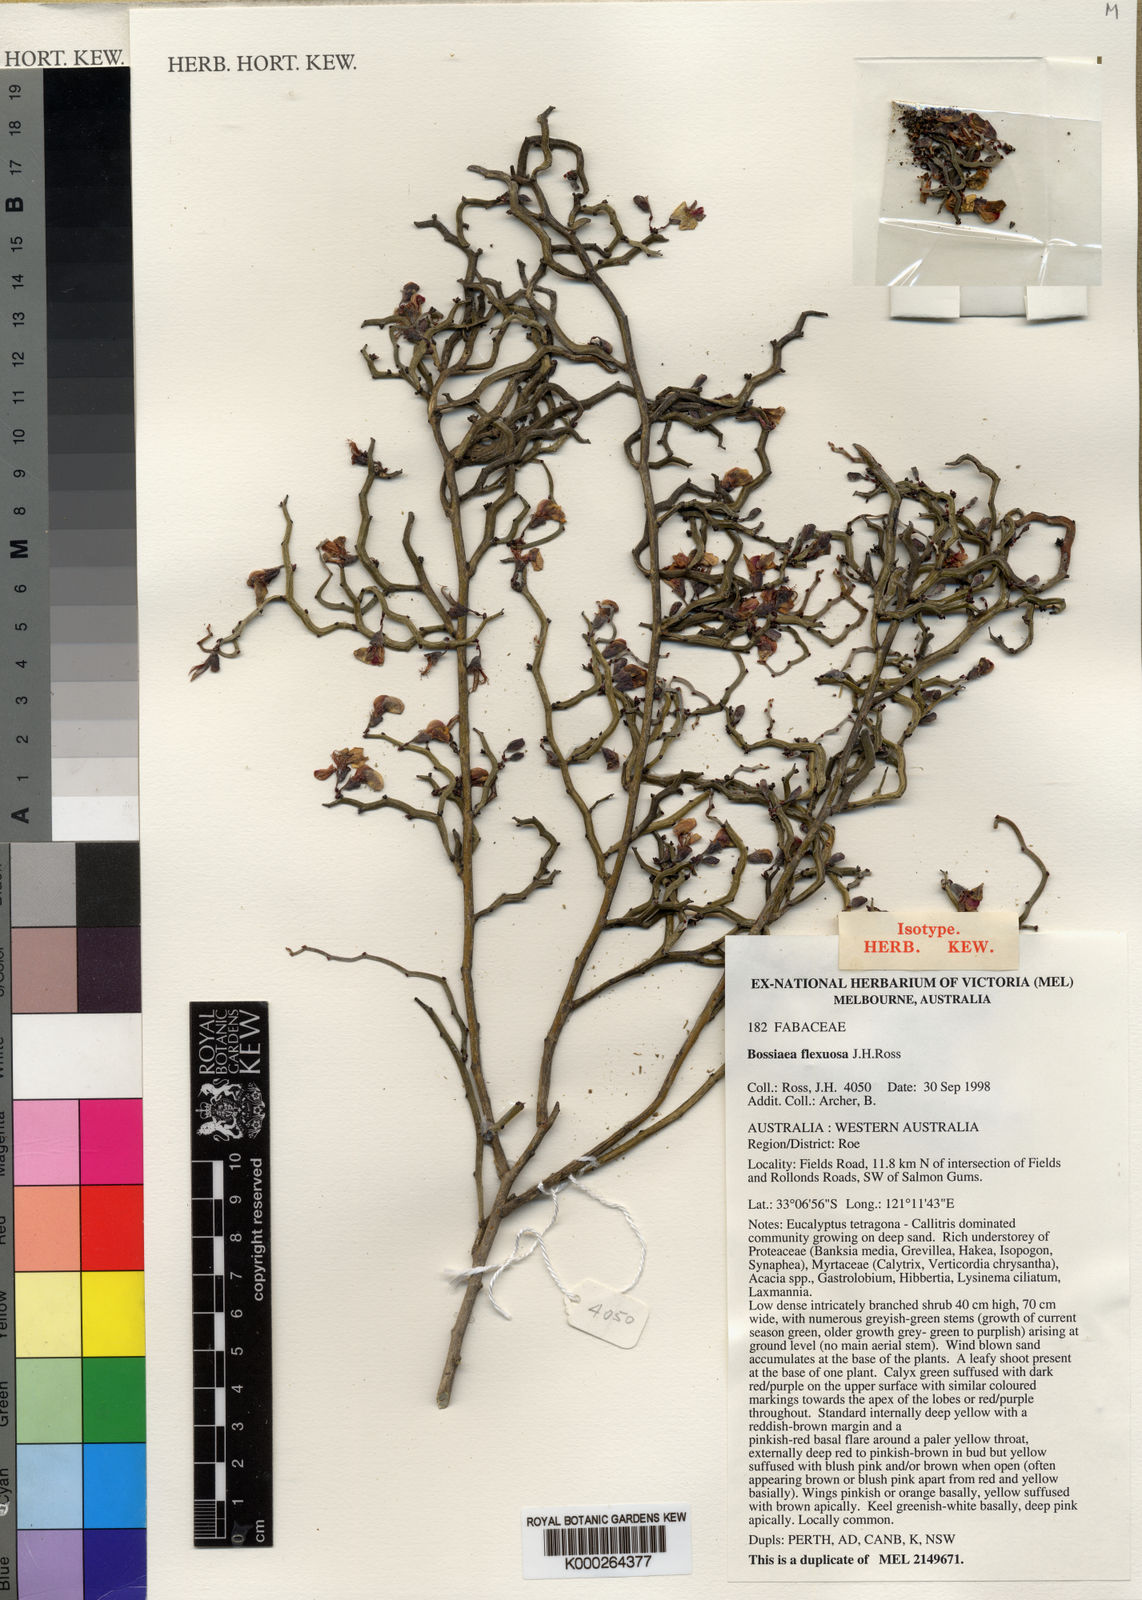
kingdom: Plantae
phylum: Tracheophyta
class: Magnoliopsida
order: Fabales
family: Fabaceae
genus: Bossiaea
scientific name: Bossiaea flexuosa
